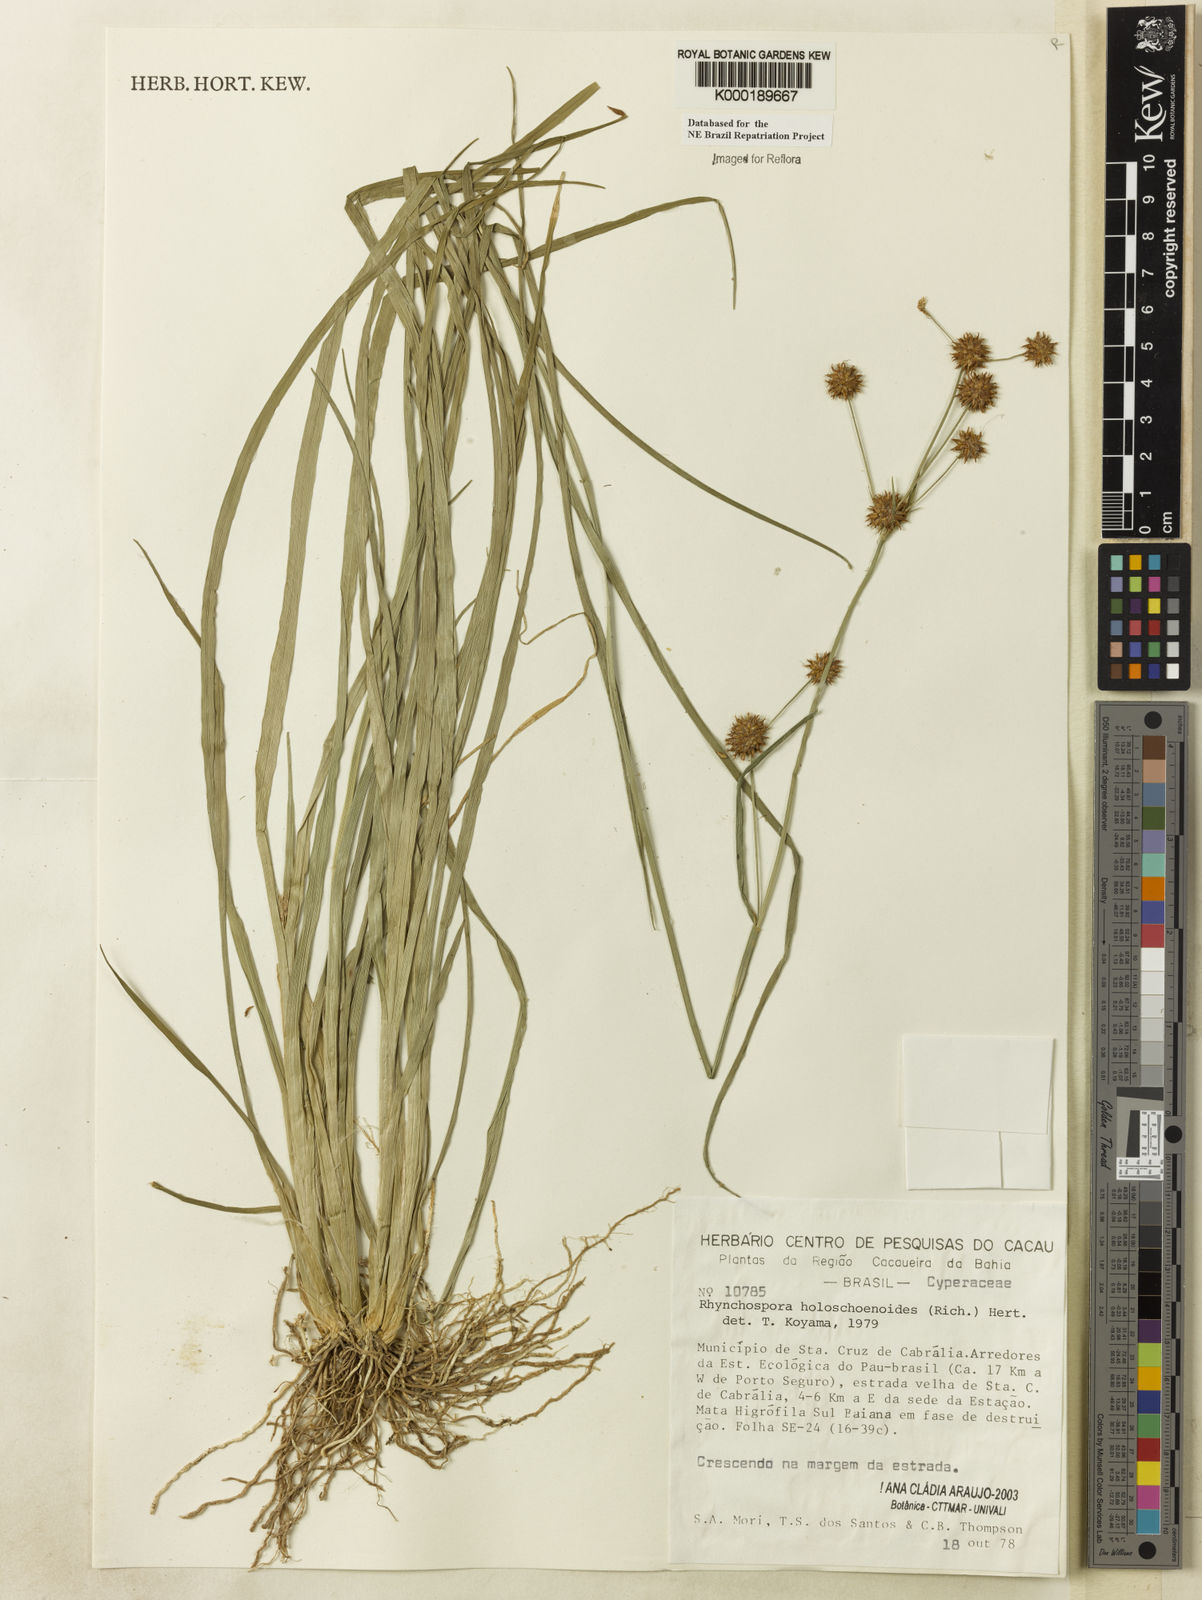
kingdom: Plantae
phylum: Tracheophyta
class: Liliopsida
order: Poales
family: Cyperaceae
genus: Rhynchospora
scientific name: Rhynchospora holoschoenoides
